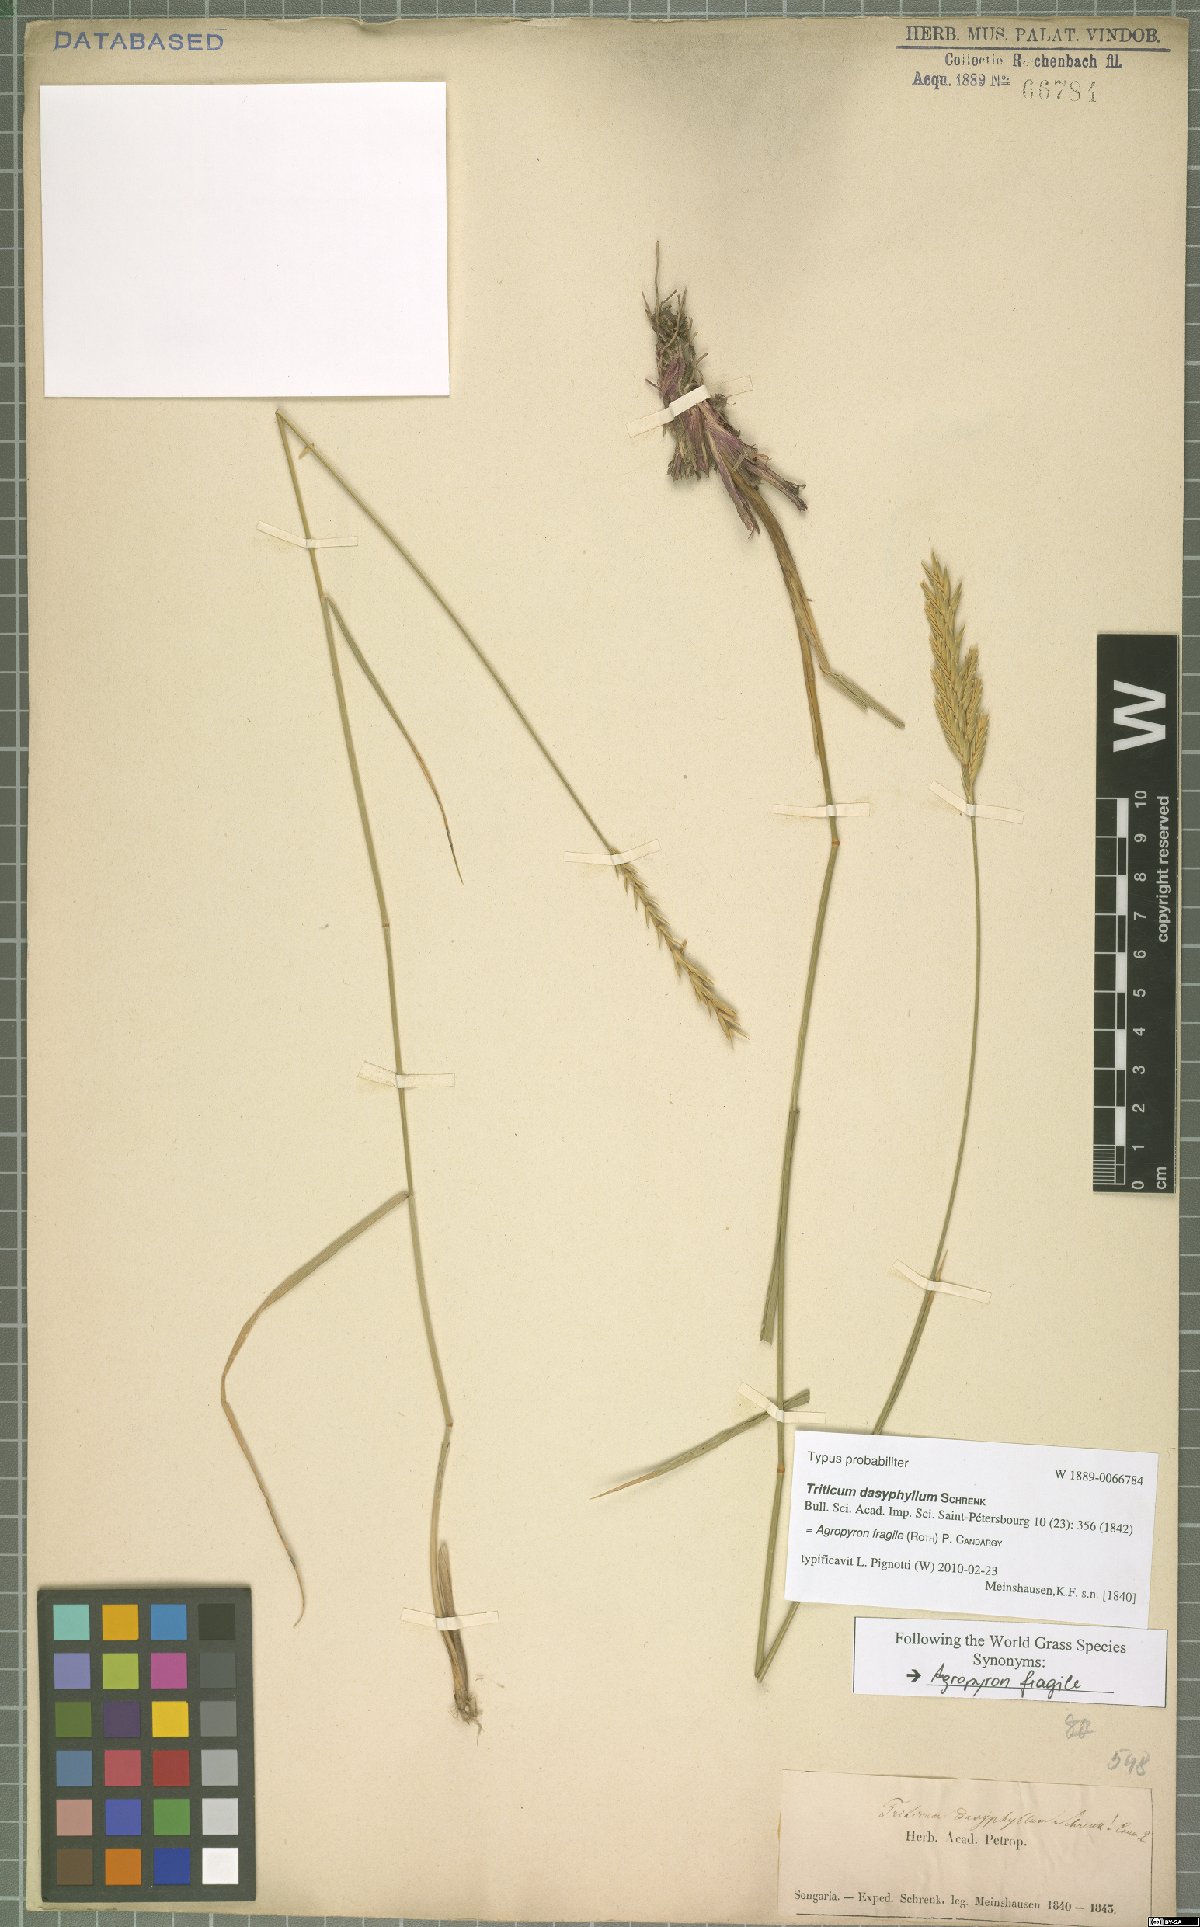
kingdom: Plantae
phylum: Tracheophyta
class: Liliopsida
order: Poales
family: Poaceae
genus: Agropyron
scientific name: Agropyron fragile
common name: Siberian wheatgrass
